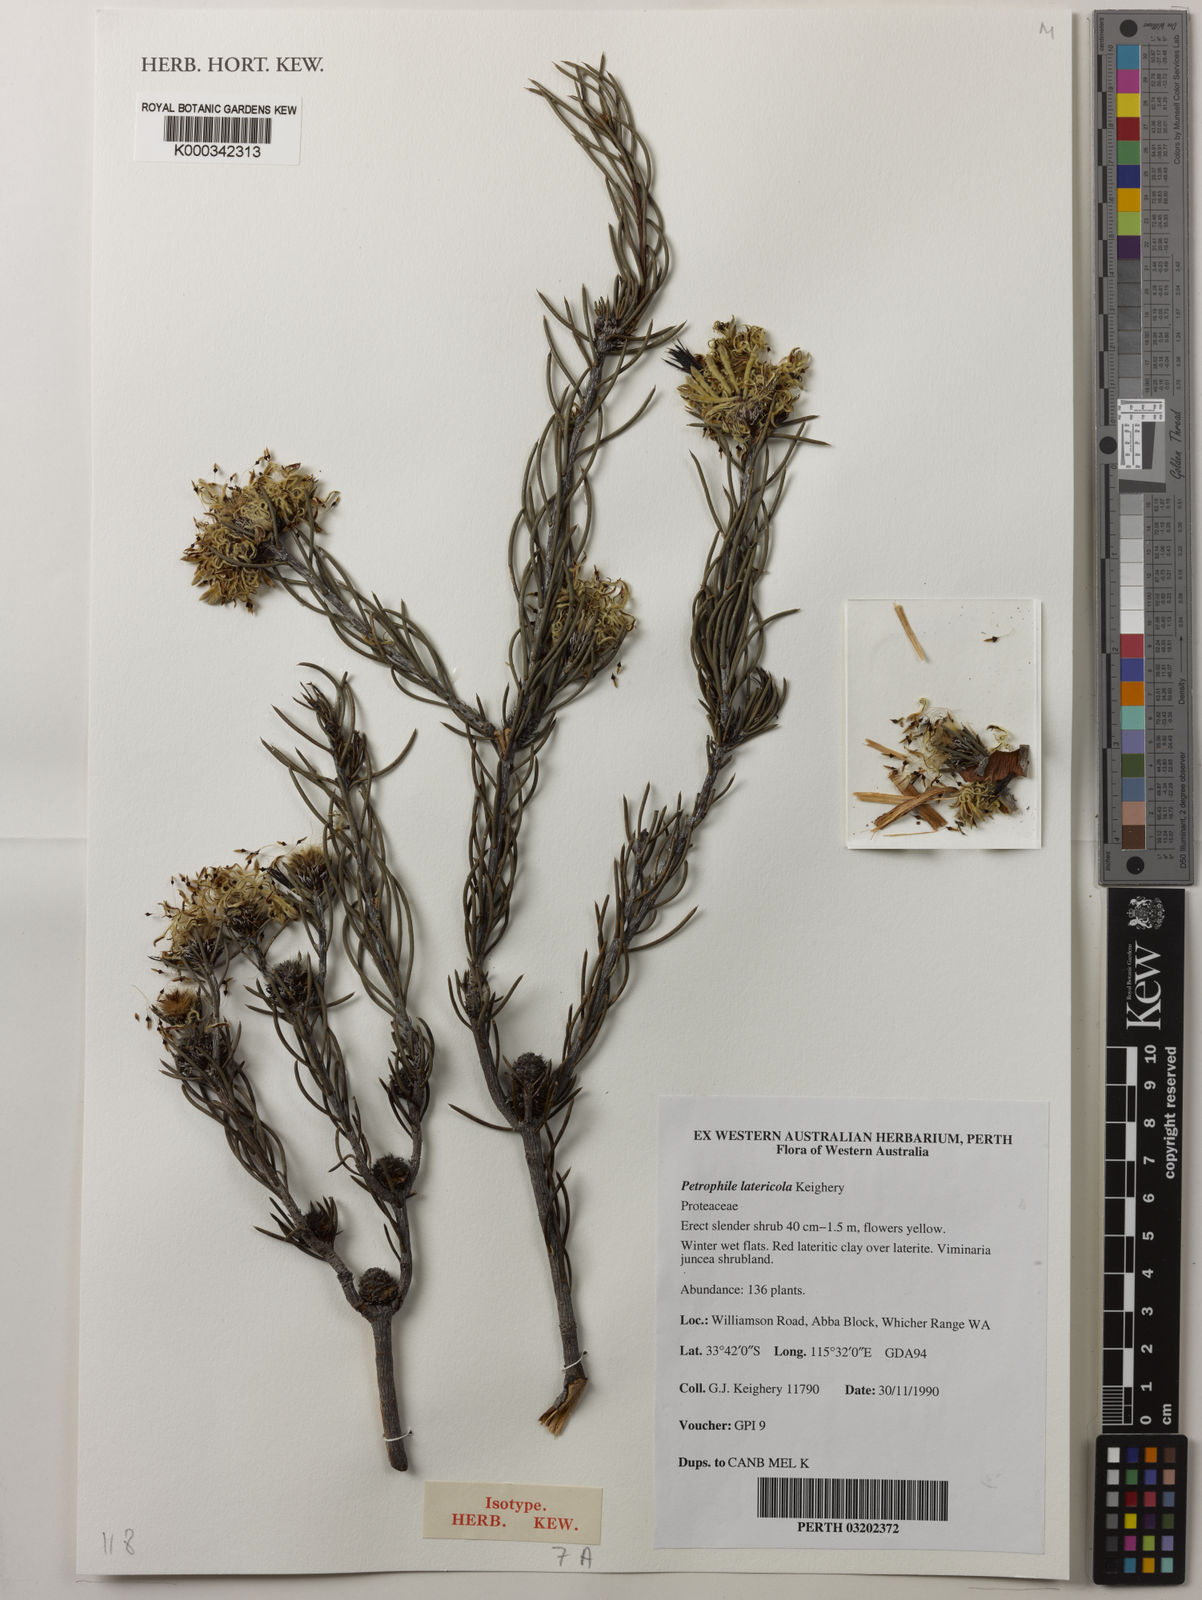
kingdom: Plantae
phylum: Tracheophyta
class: Magnoliopsida
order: Proteales
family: Proteaceae
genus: Petrophile
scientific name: Petrophile latericola
